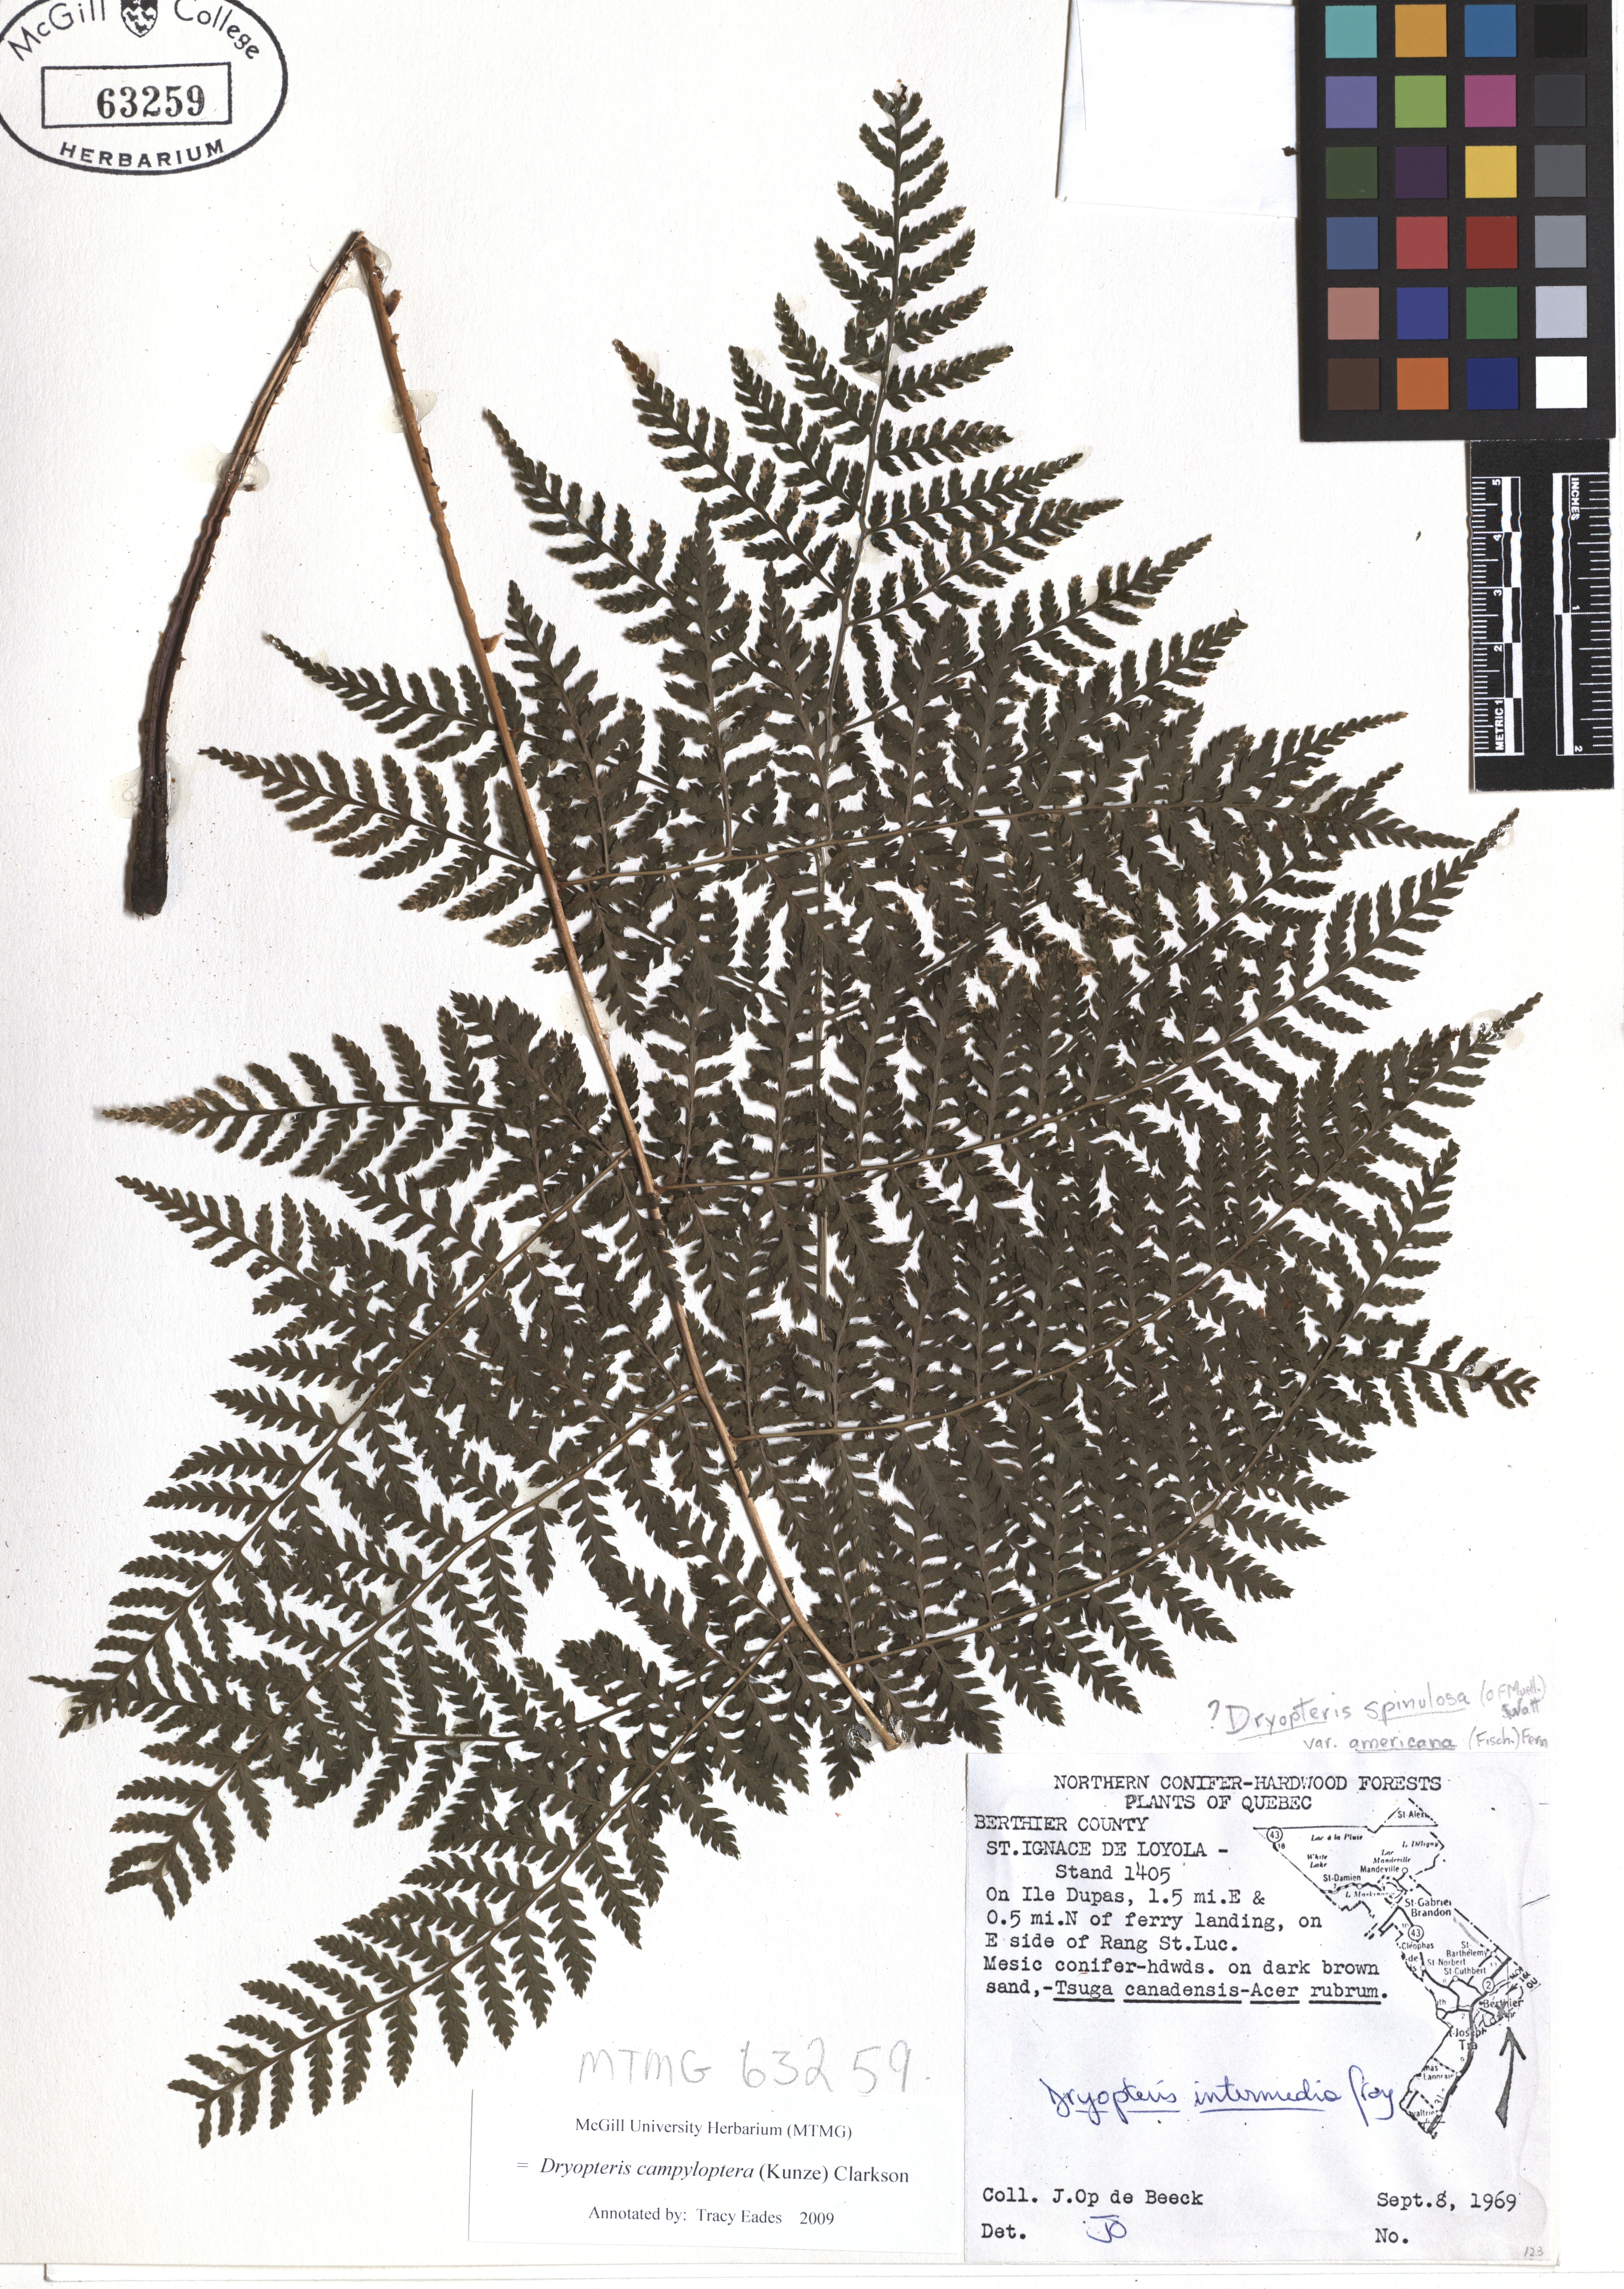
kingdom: Plantae
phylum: Tracheophyta
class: Polypodiopsida
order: Polypodiales
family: Dryopteridaceae
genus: Dryopteris
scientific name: Dryopteris campyloptera
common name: Mountain wood fern
